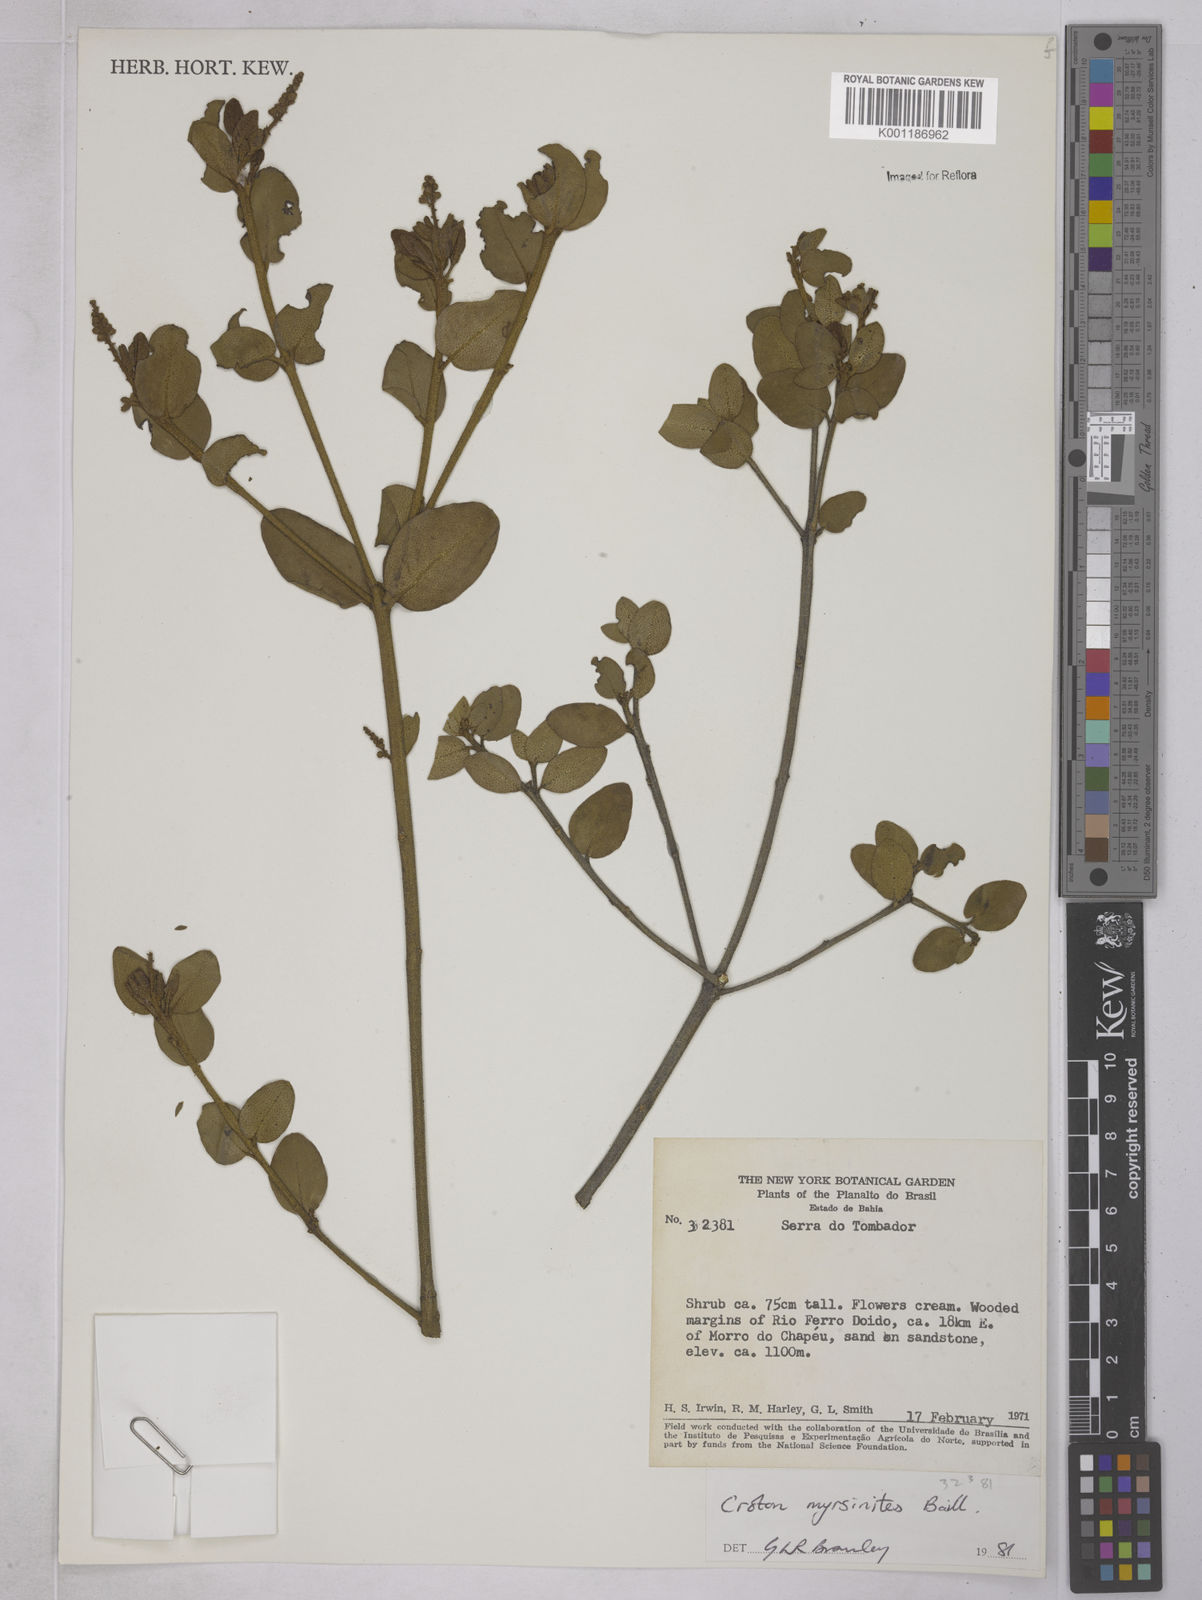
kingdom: Plantae
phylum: Tracheophyta
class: Magnoliopsida
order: Malpighiales
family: Euphorbiaceae
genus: Croton
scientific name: Croton myrsinites
